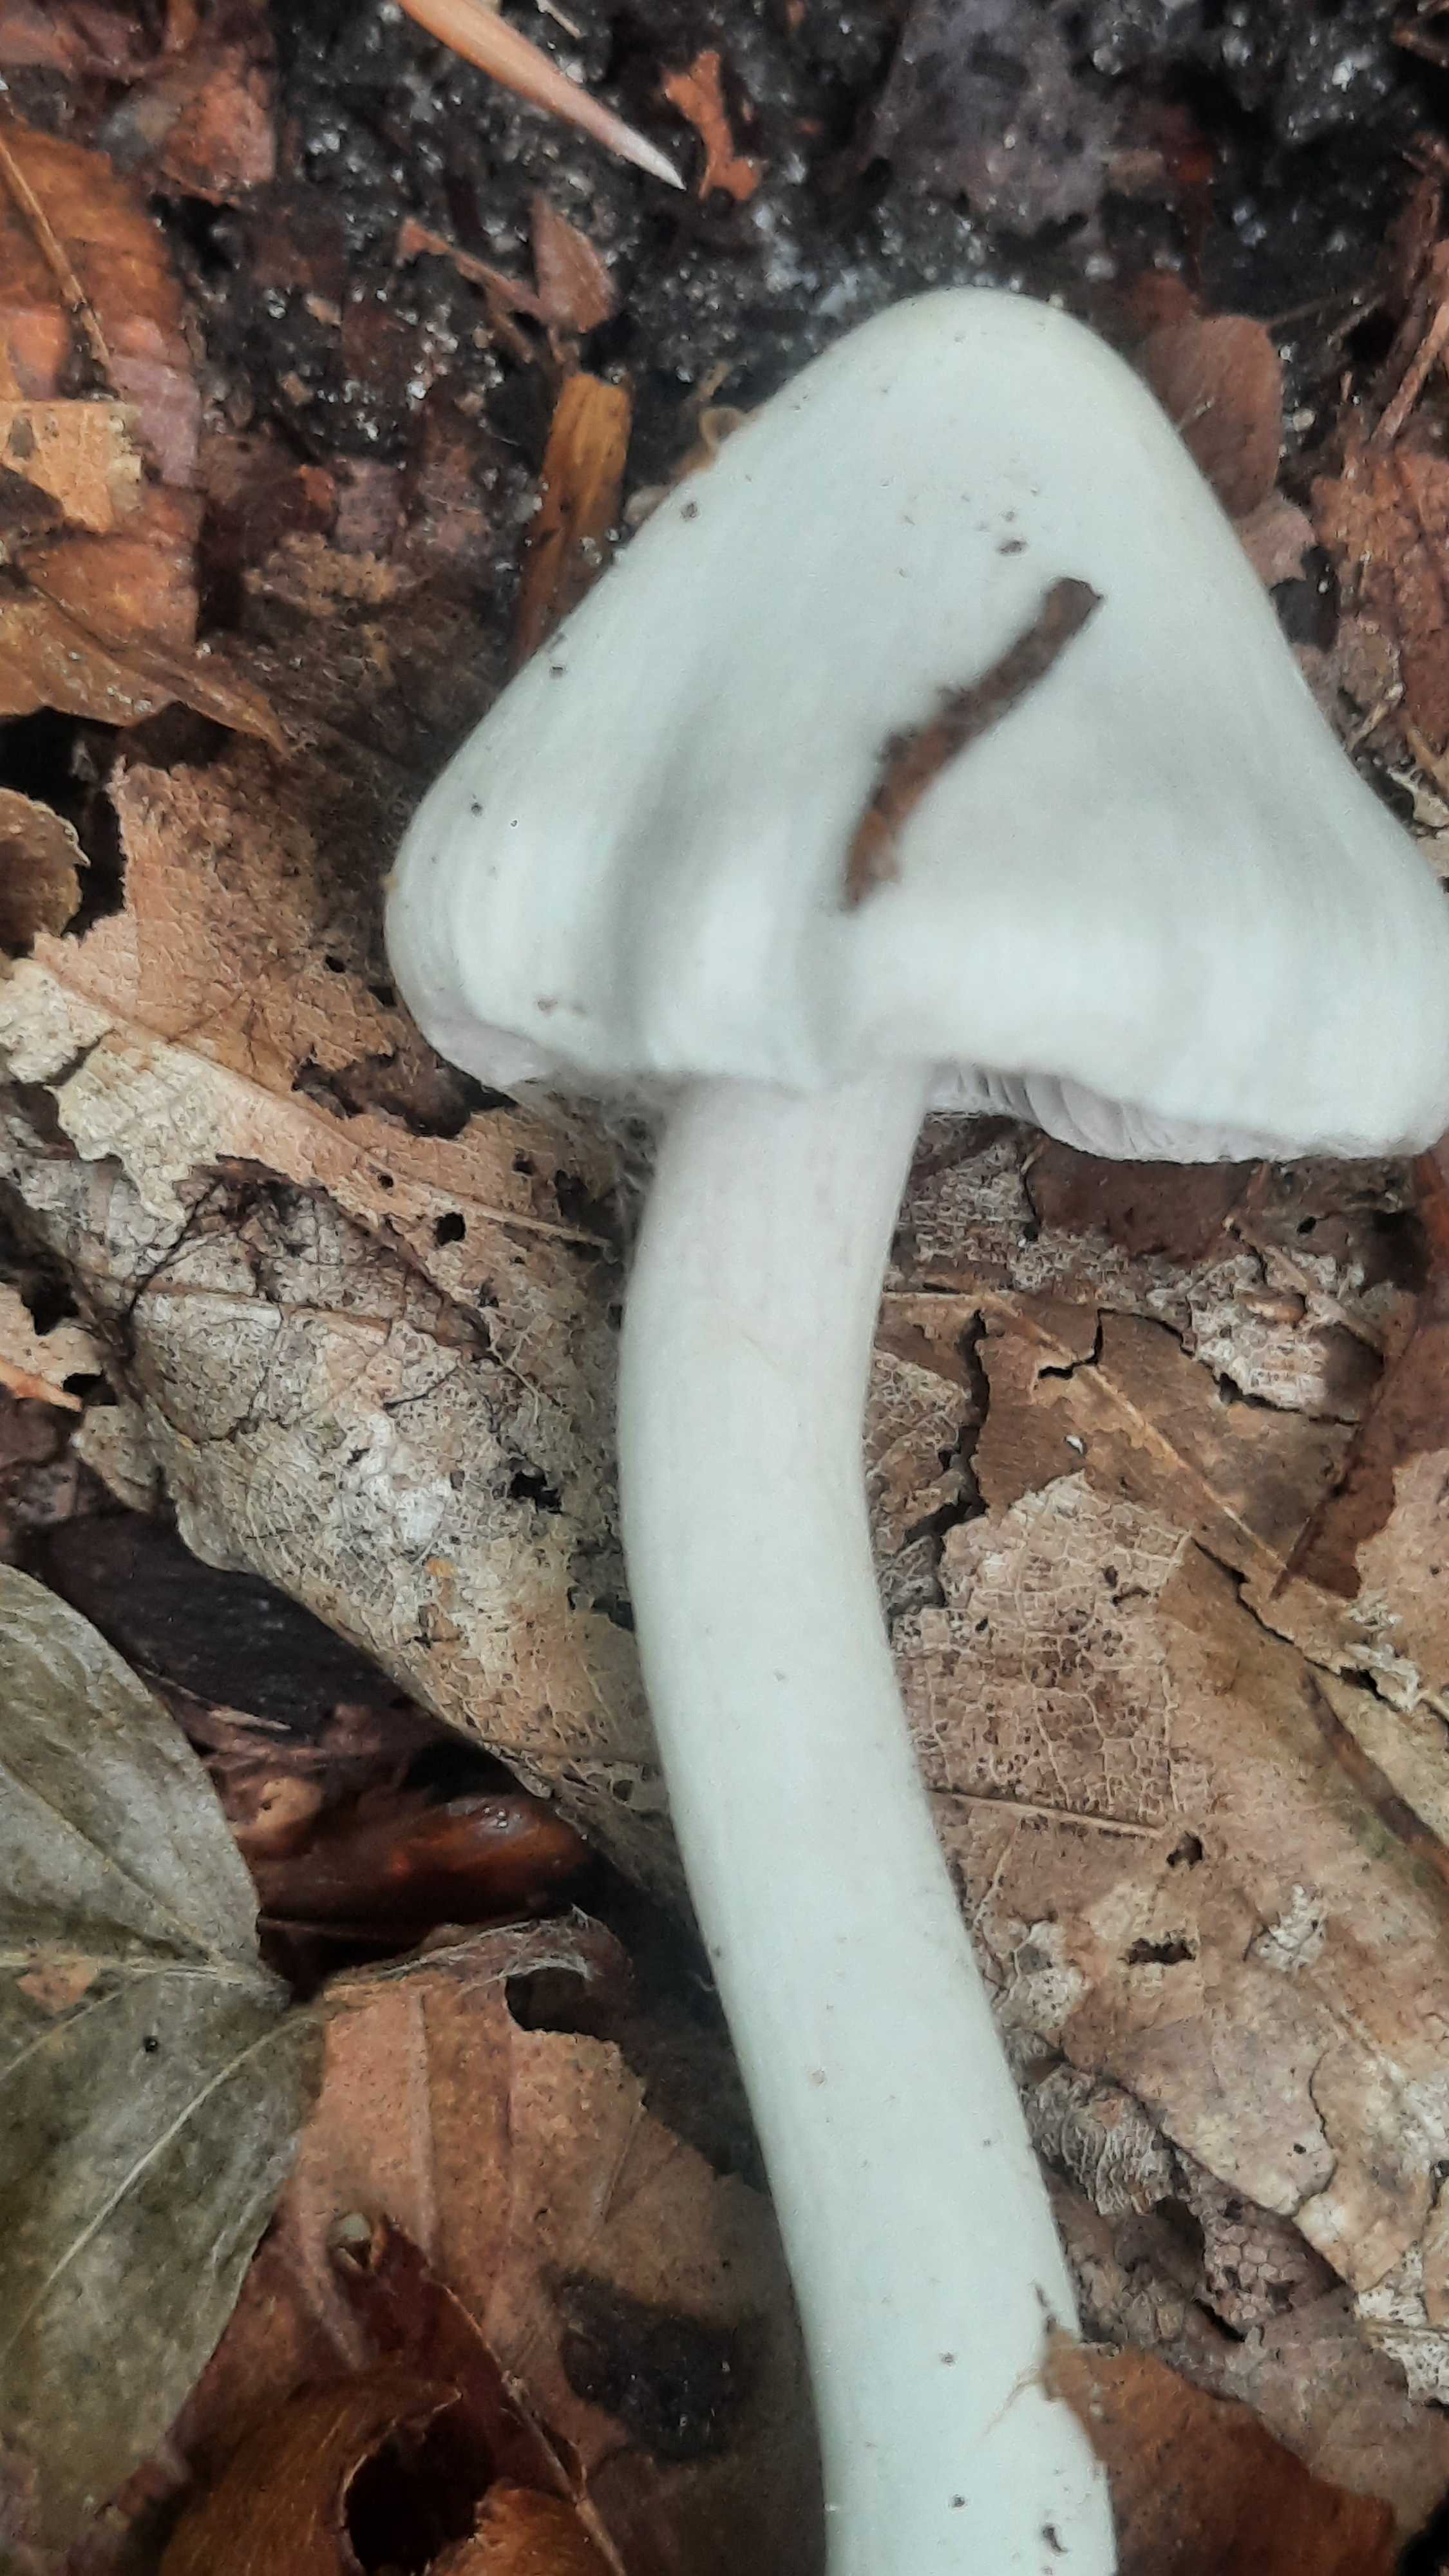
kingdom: Fungi
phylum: Basidiomycota
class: Agaricomycetes
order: Agaricales
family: Inocybaceae
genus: Inocybe
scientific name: Inocybe
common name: almindelig trævlhat
